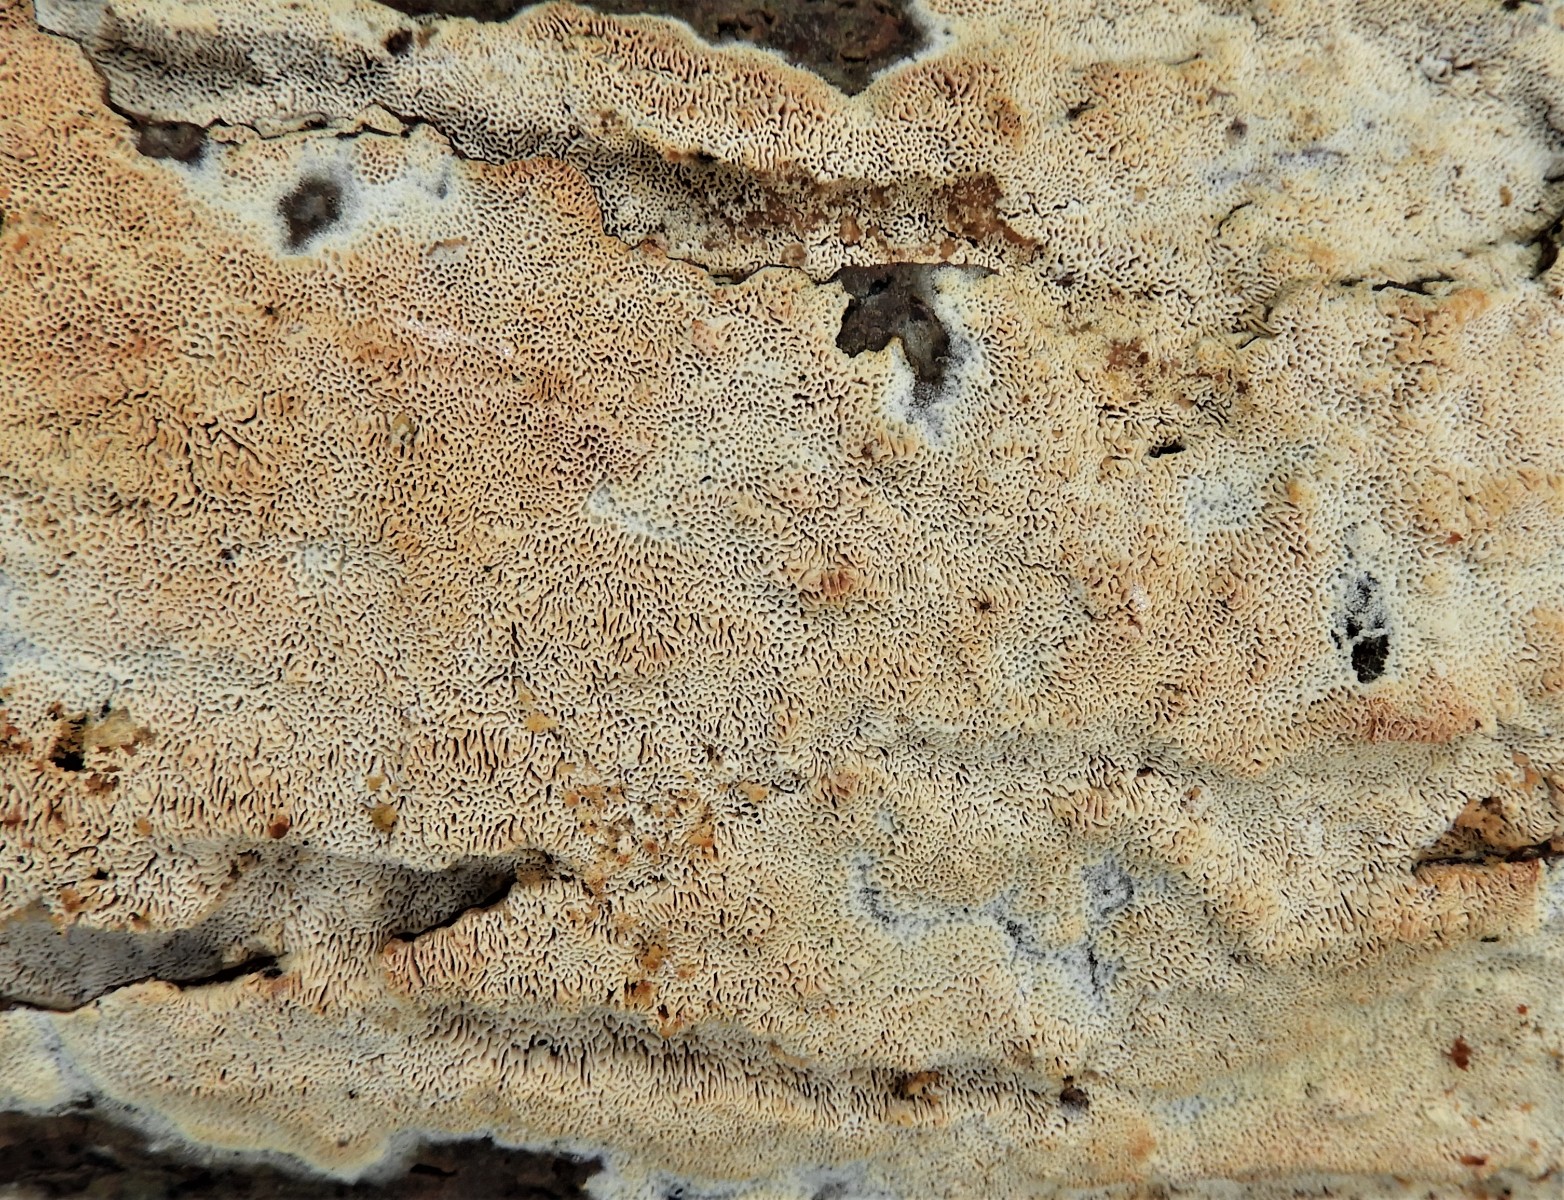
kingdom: Fungi
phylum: Basidiomycota
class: Agaricomycetes
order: Hymenochaetales
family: Schizoporaceae
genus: Xylodon
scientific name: Xylodon subtropicus
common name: labyrint-tandsvamp
